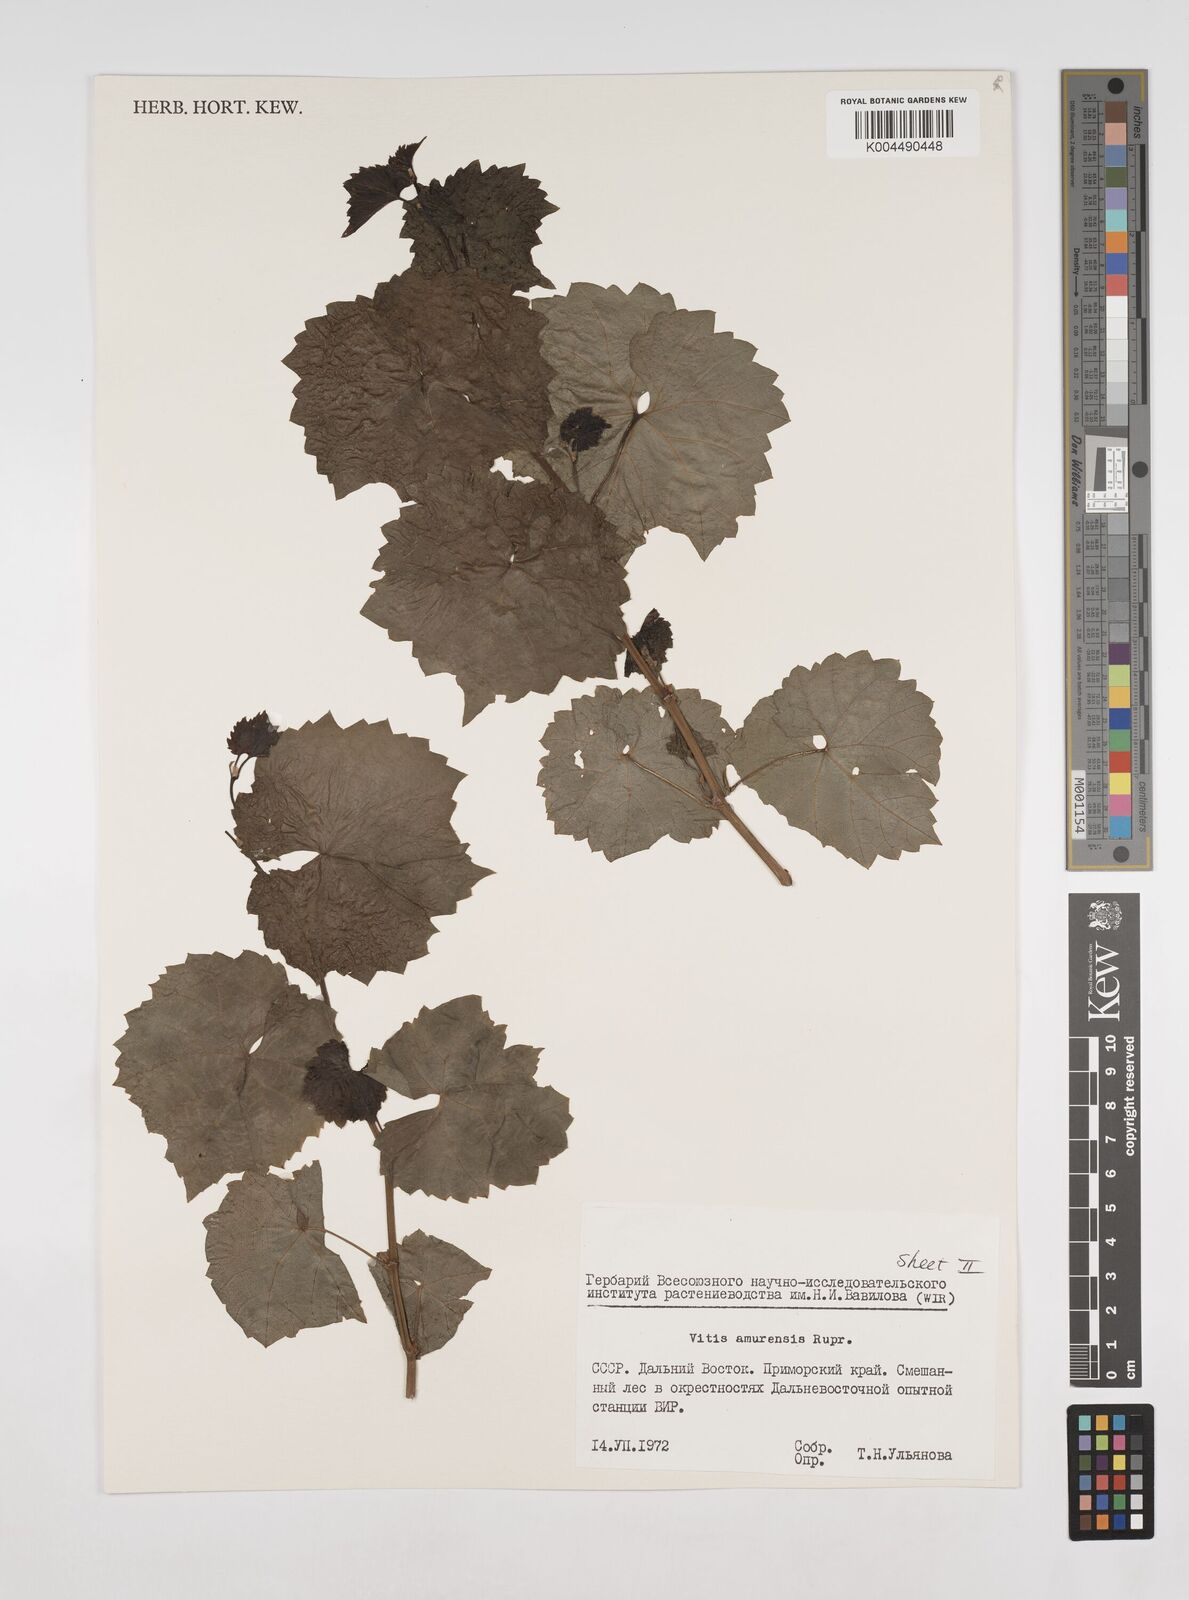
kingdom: Plantae
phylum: Tracheophyta
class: Magnoliopsida
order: Vitales
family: Vitaceae
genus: Vitis
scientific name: Vitis vinifera
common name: Grape-vine
